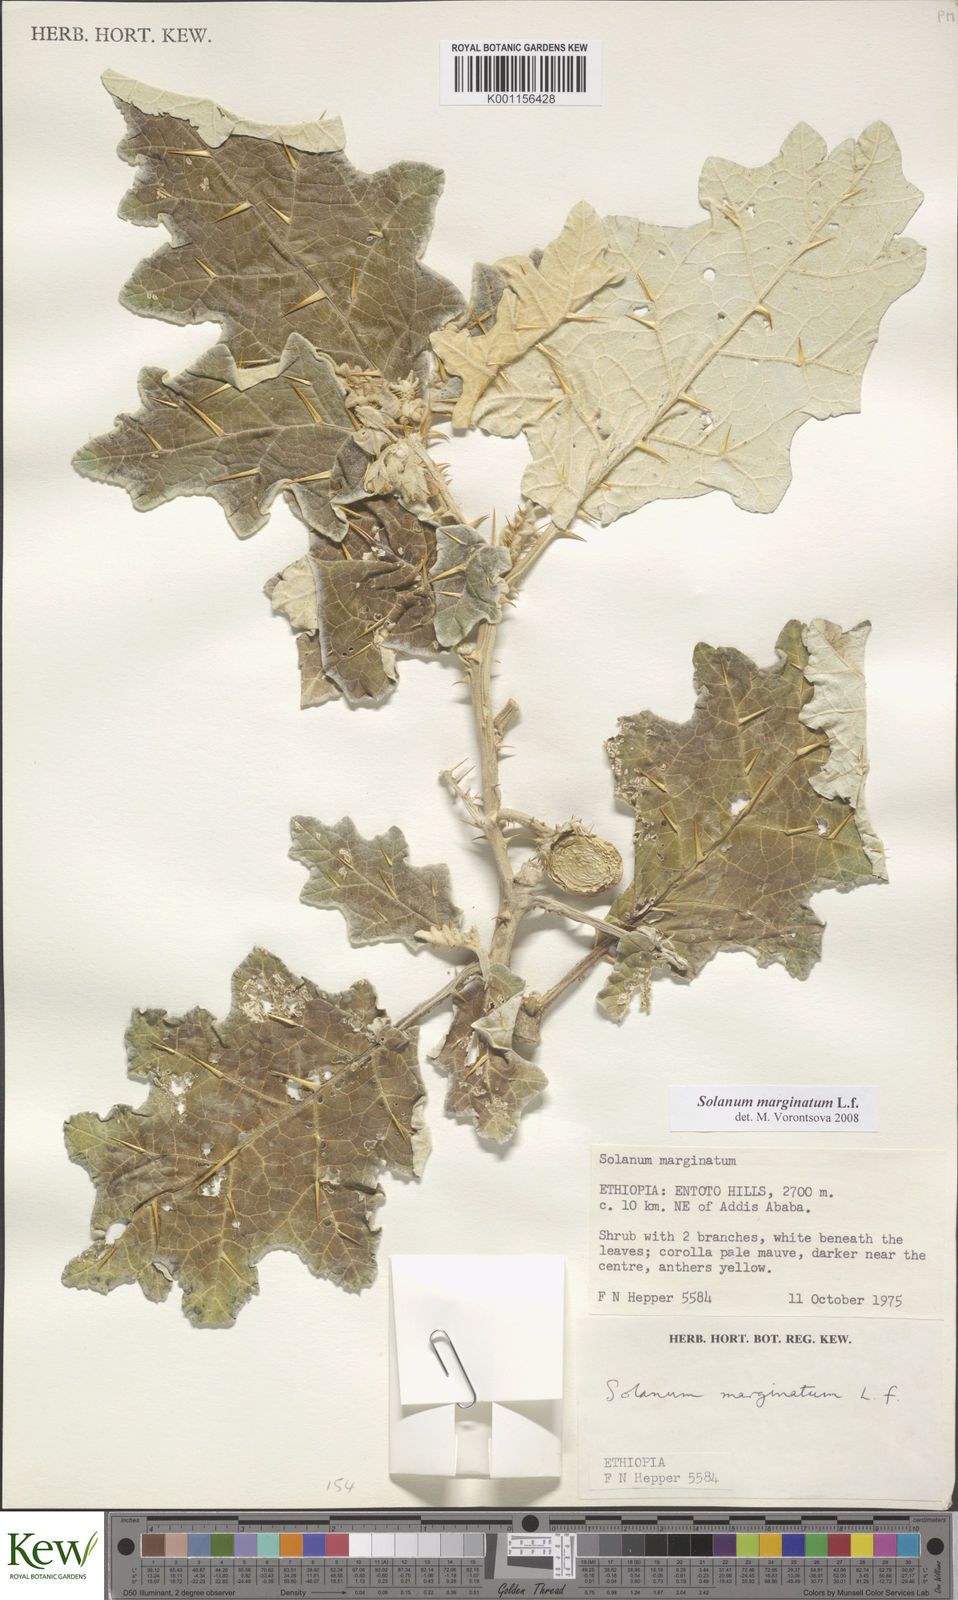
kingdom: Plantae
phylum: Tracheophyta
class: Magnoliopsida
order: Solanales
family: Solanaceae
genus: Solanum
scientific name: Solanum marginatum
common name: Purple african nightshade
